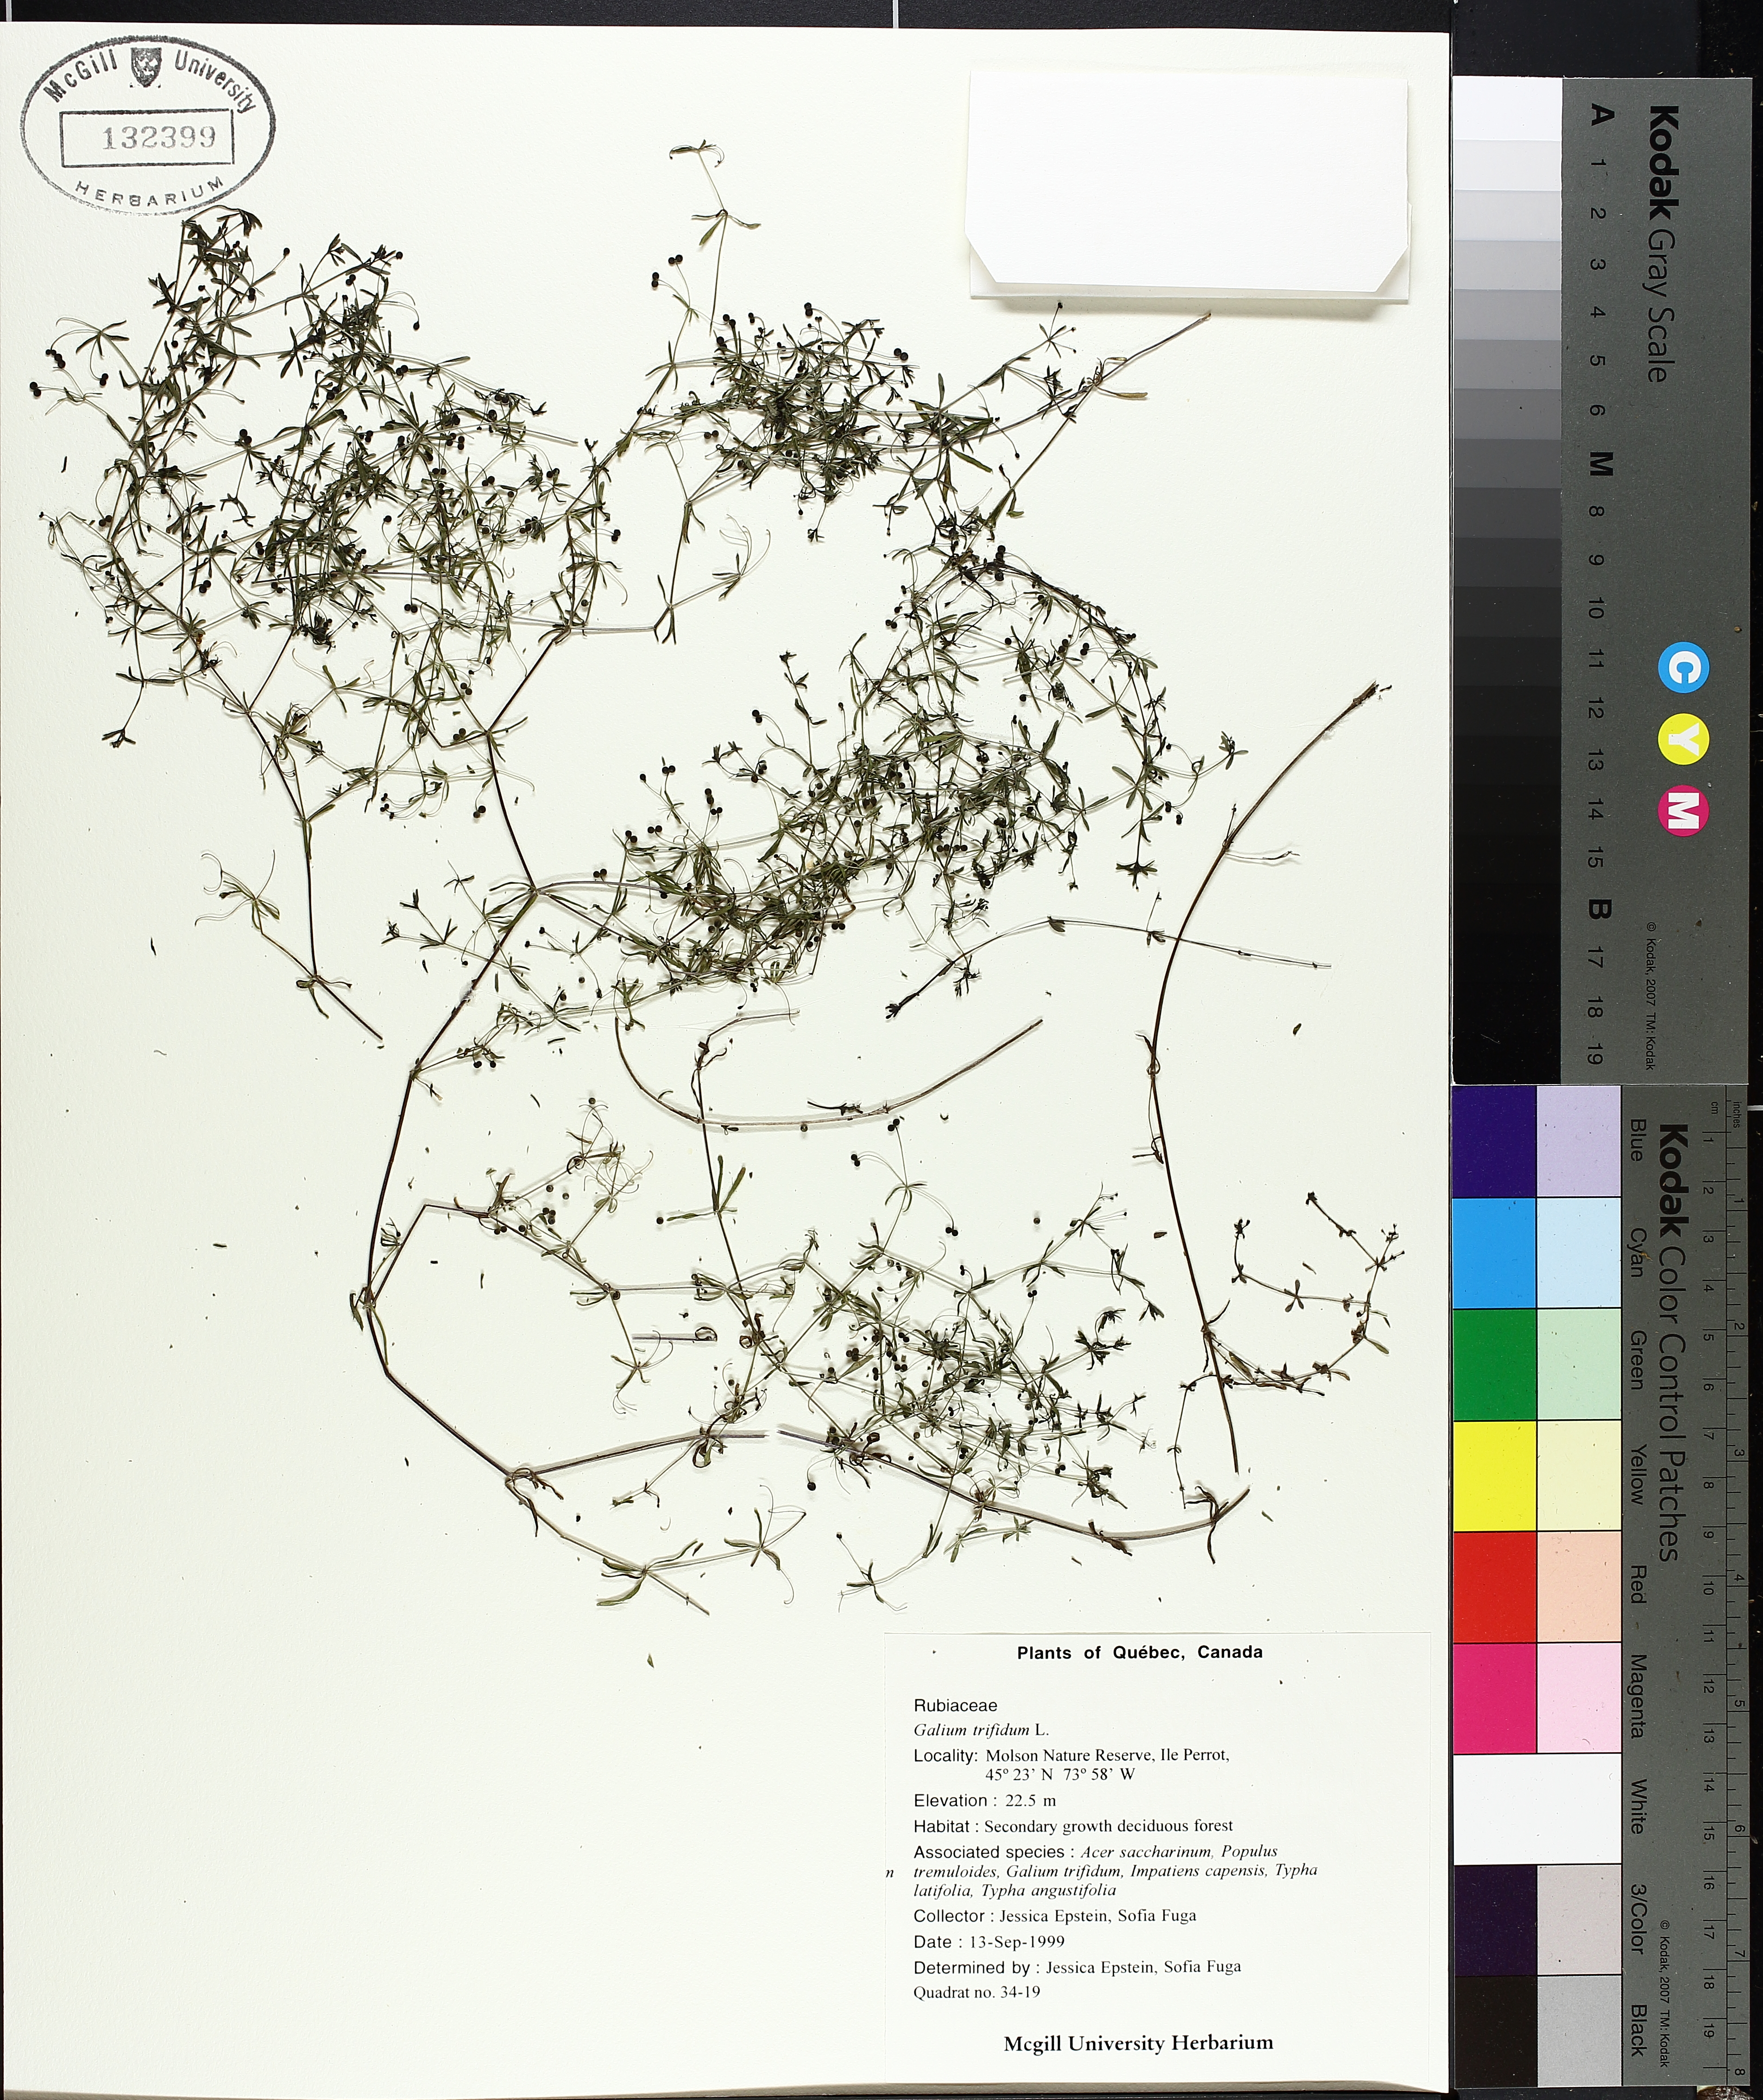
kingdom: Plantae
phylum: Tracheophyta
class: Magnoliopsida
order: Gentianales
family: Rubiaceae
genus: Galium
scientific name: Galium antarcticum
